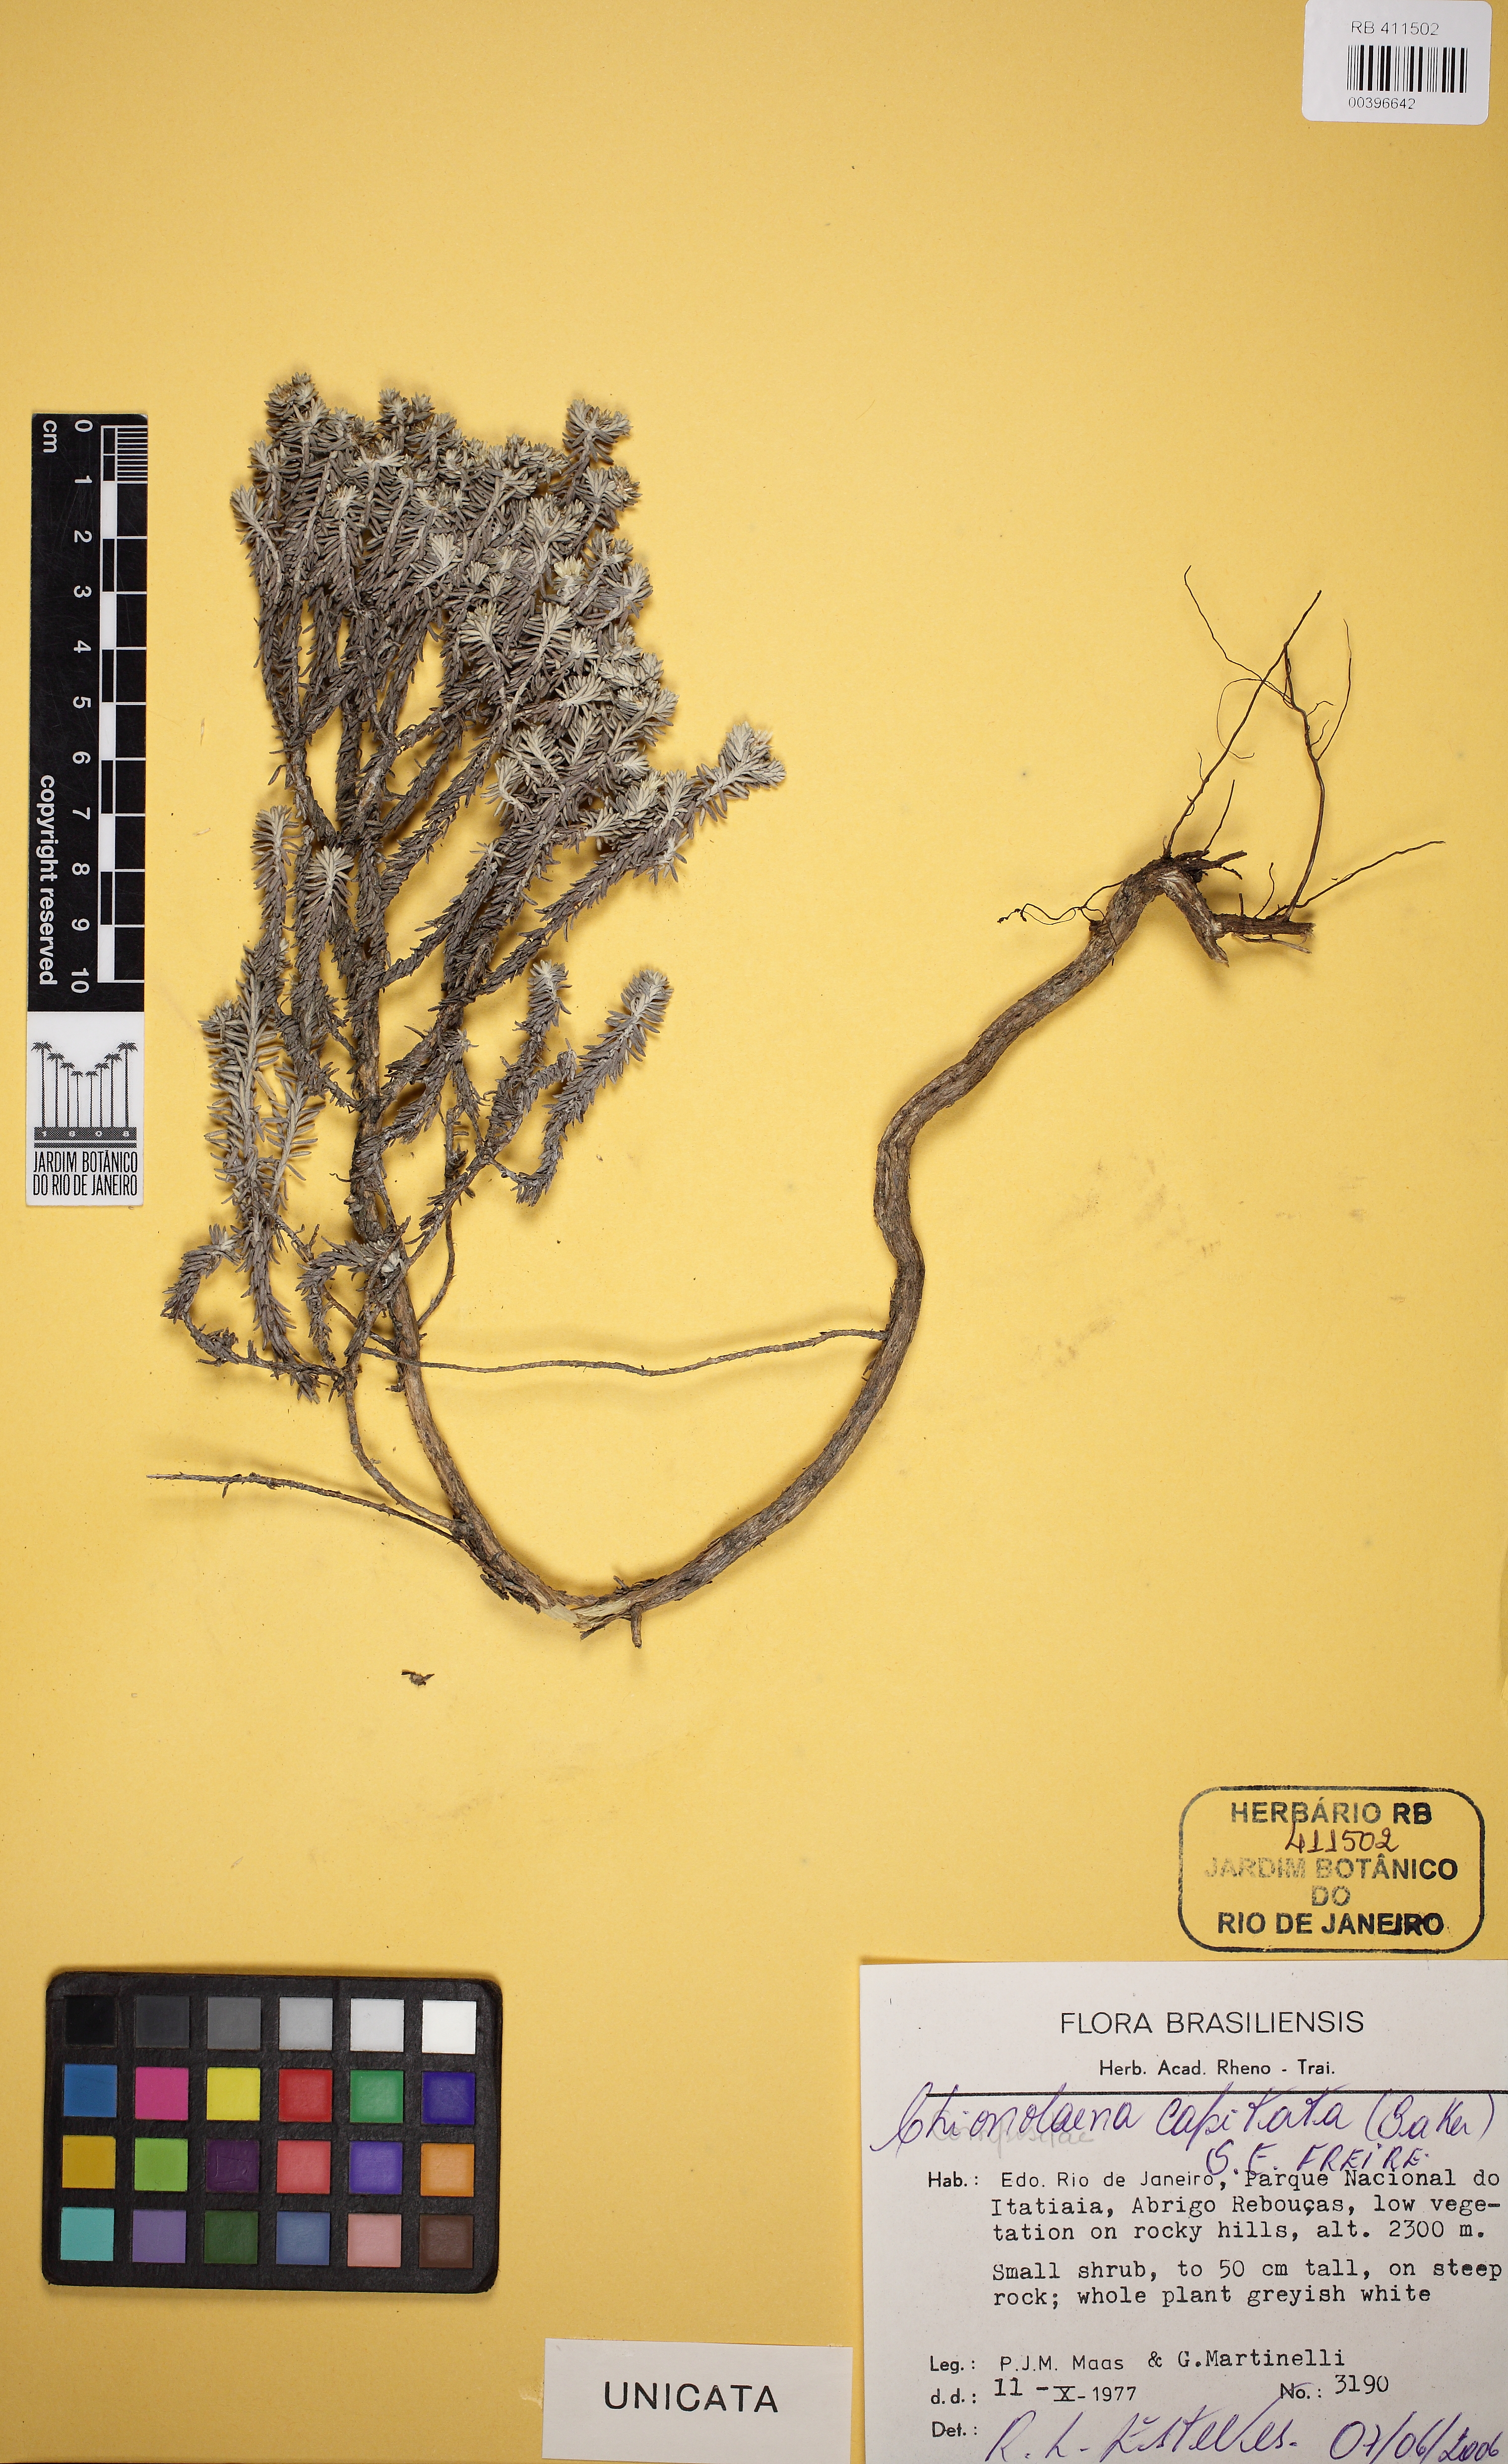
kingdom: Plantae
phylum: Tracheophyta
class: Magnoliopsida
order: Asterales
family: Asteraceae
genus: Chionolaena
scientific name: Chionolaena capitata
